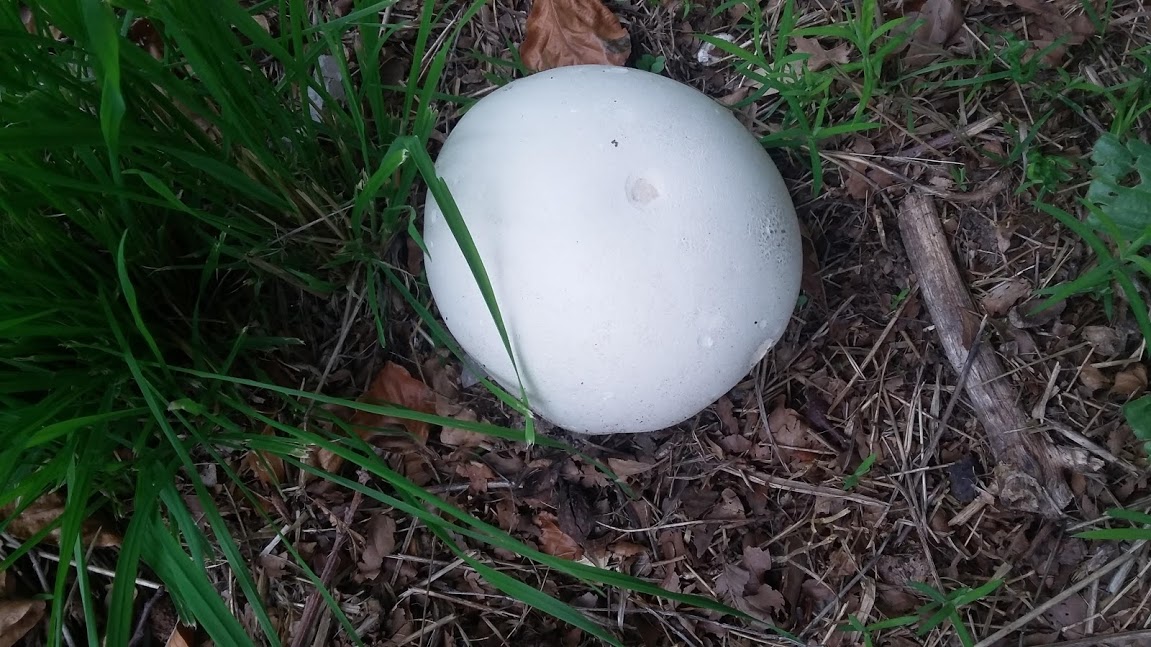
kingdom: Fungi
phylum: Basidiomycota
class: Agaricomycetes
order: Agaricales
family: Lycoperdaceae
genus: Calvatia
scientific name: Calvatia gigantea
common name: kæmpestøvbold
